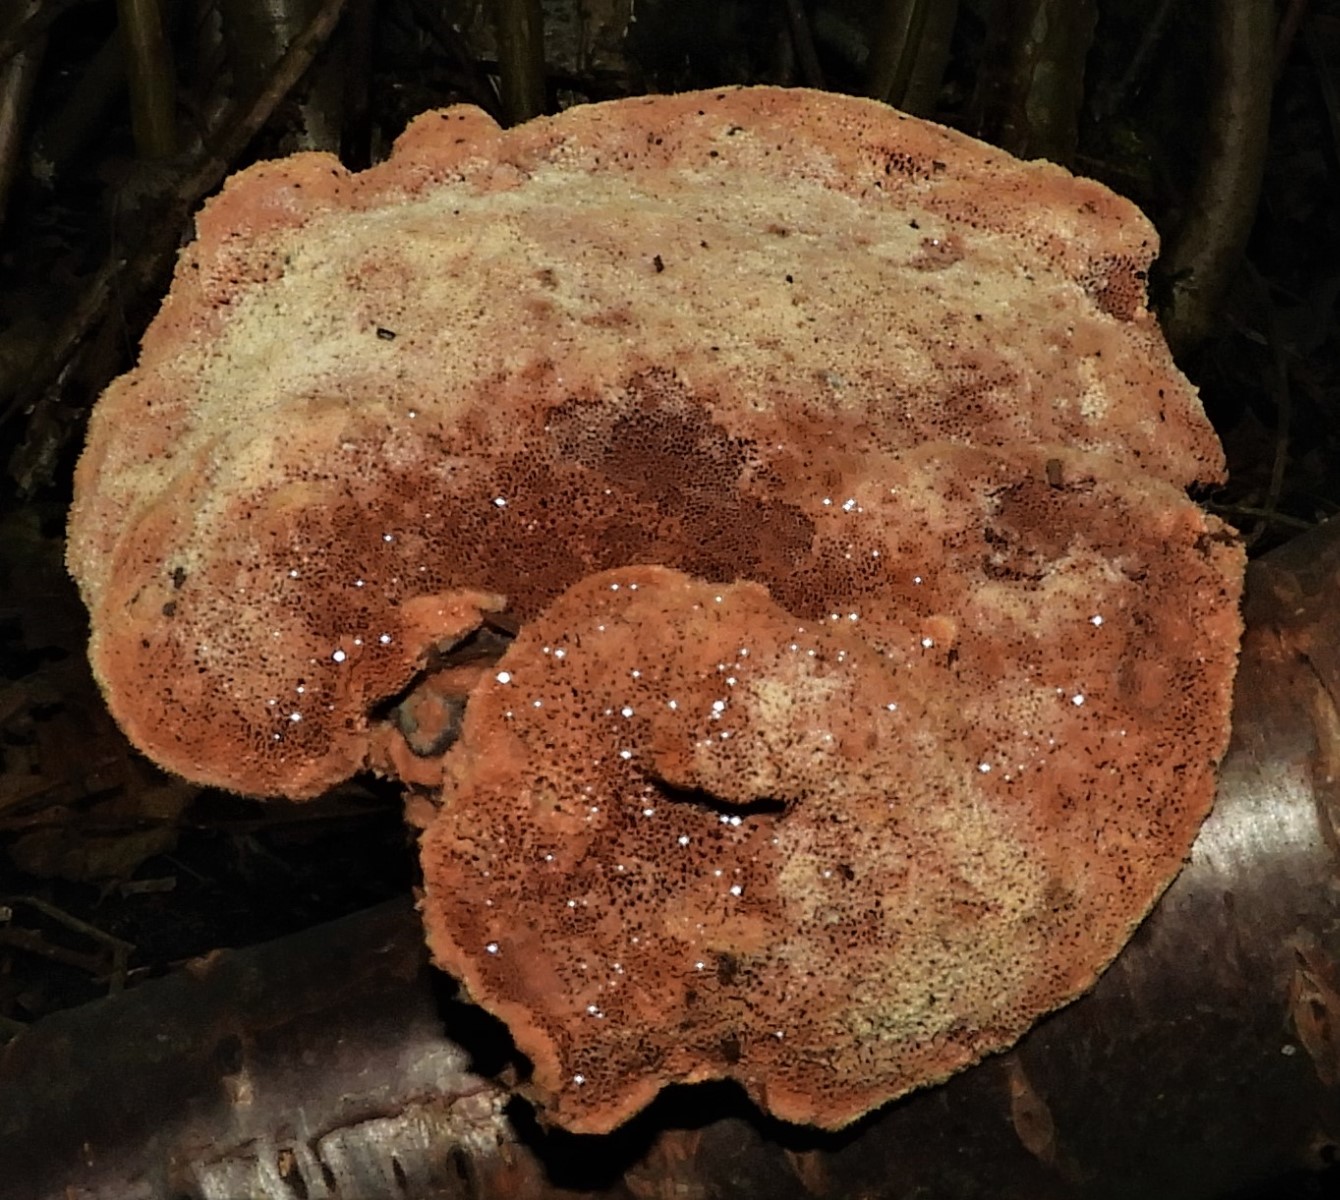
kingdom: Fungi
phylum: Basidiomycota
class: Agaricomycetes
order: Polyporales
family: Phanerochaetaceae
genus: Hapalopilus
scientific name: Hapalopilus rutilans
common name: rødlig okkerporesvamp
